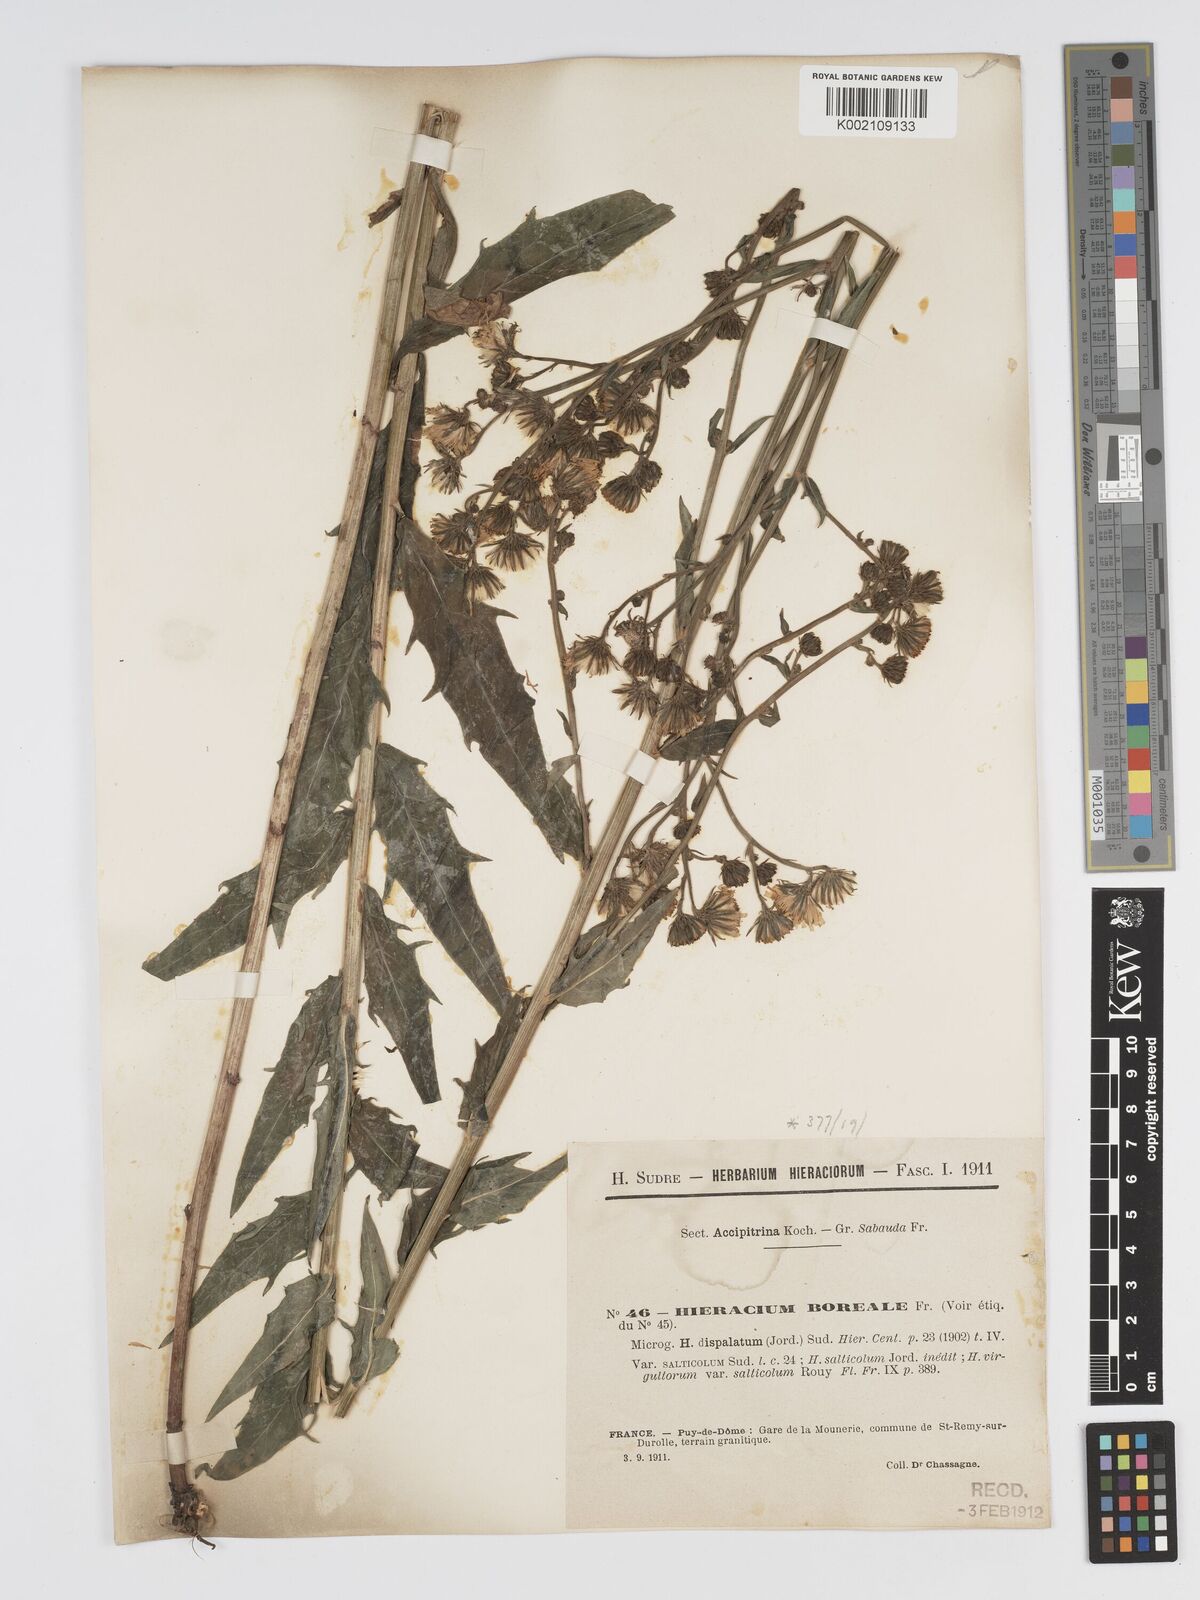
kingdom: Plantae
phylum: Tracheophyta
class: Magnoliopsida
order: Asterales
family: Asteraceae
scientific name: Asteraceae
